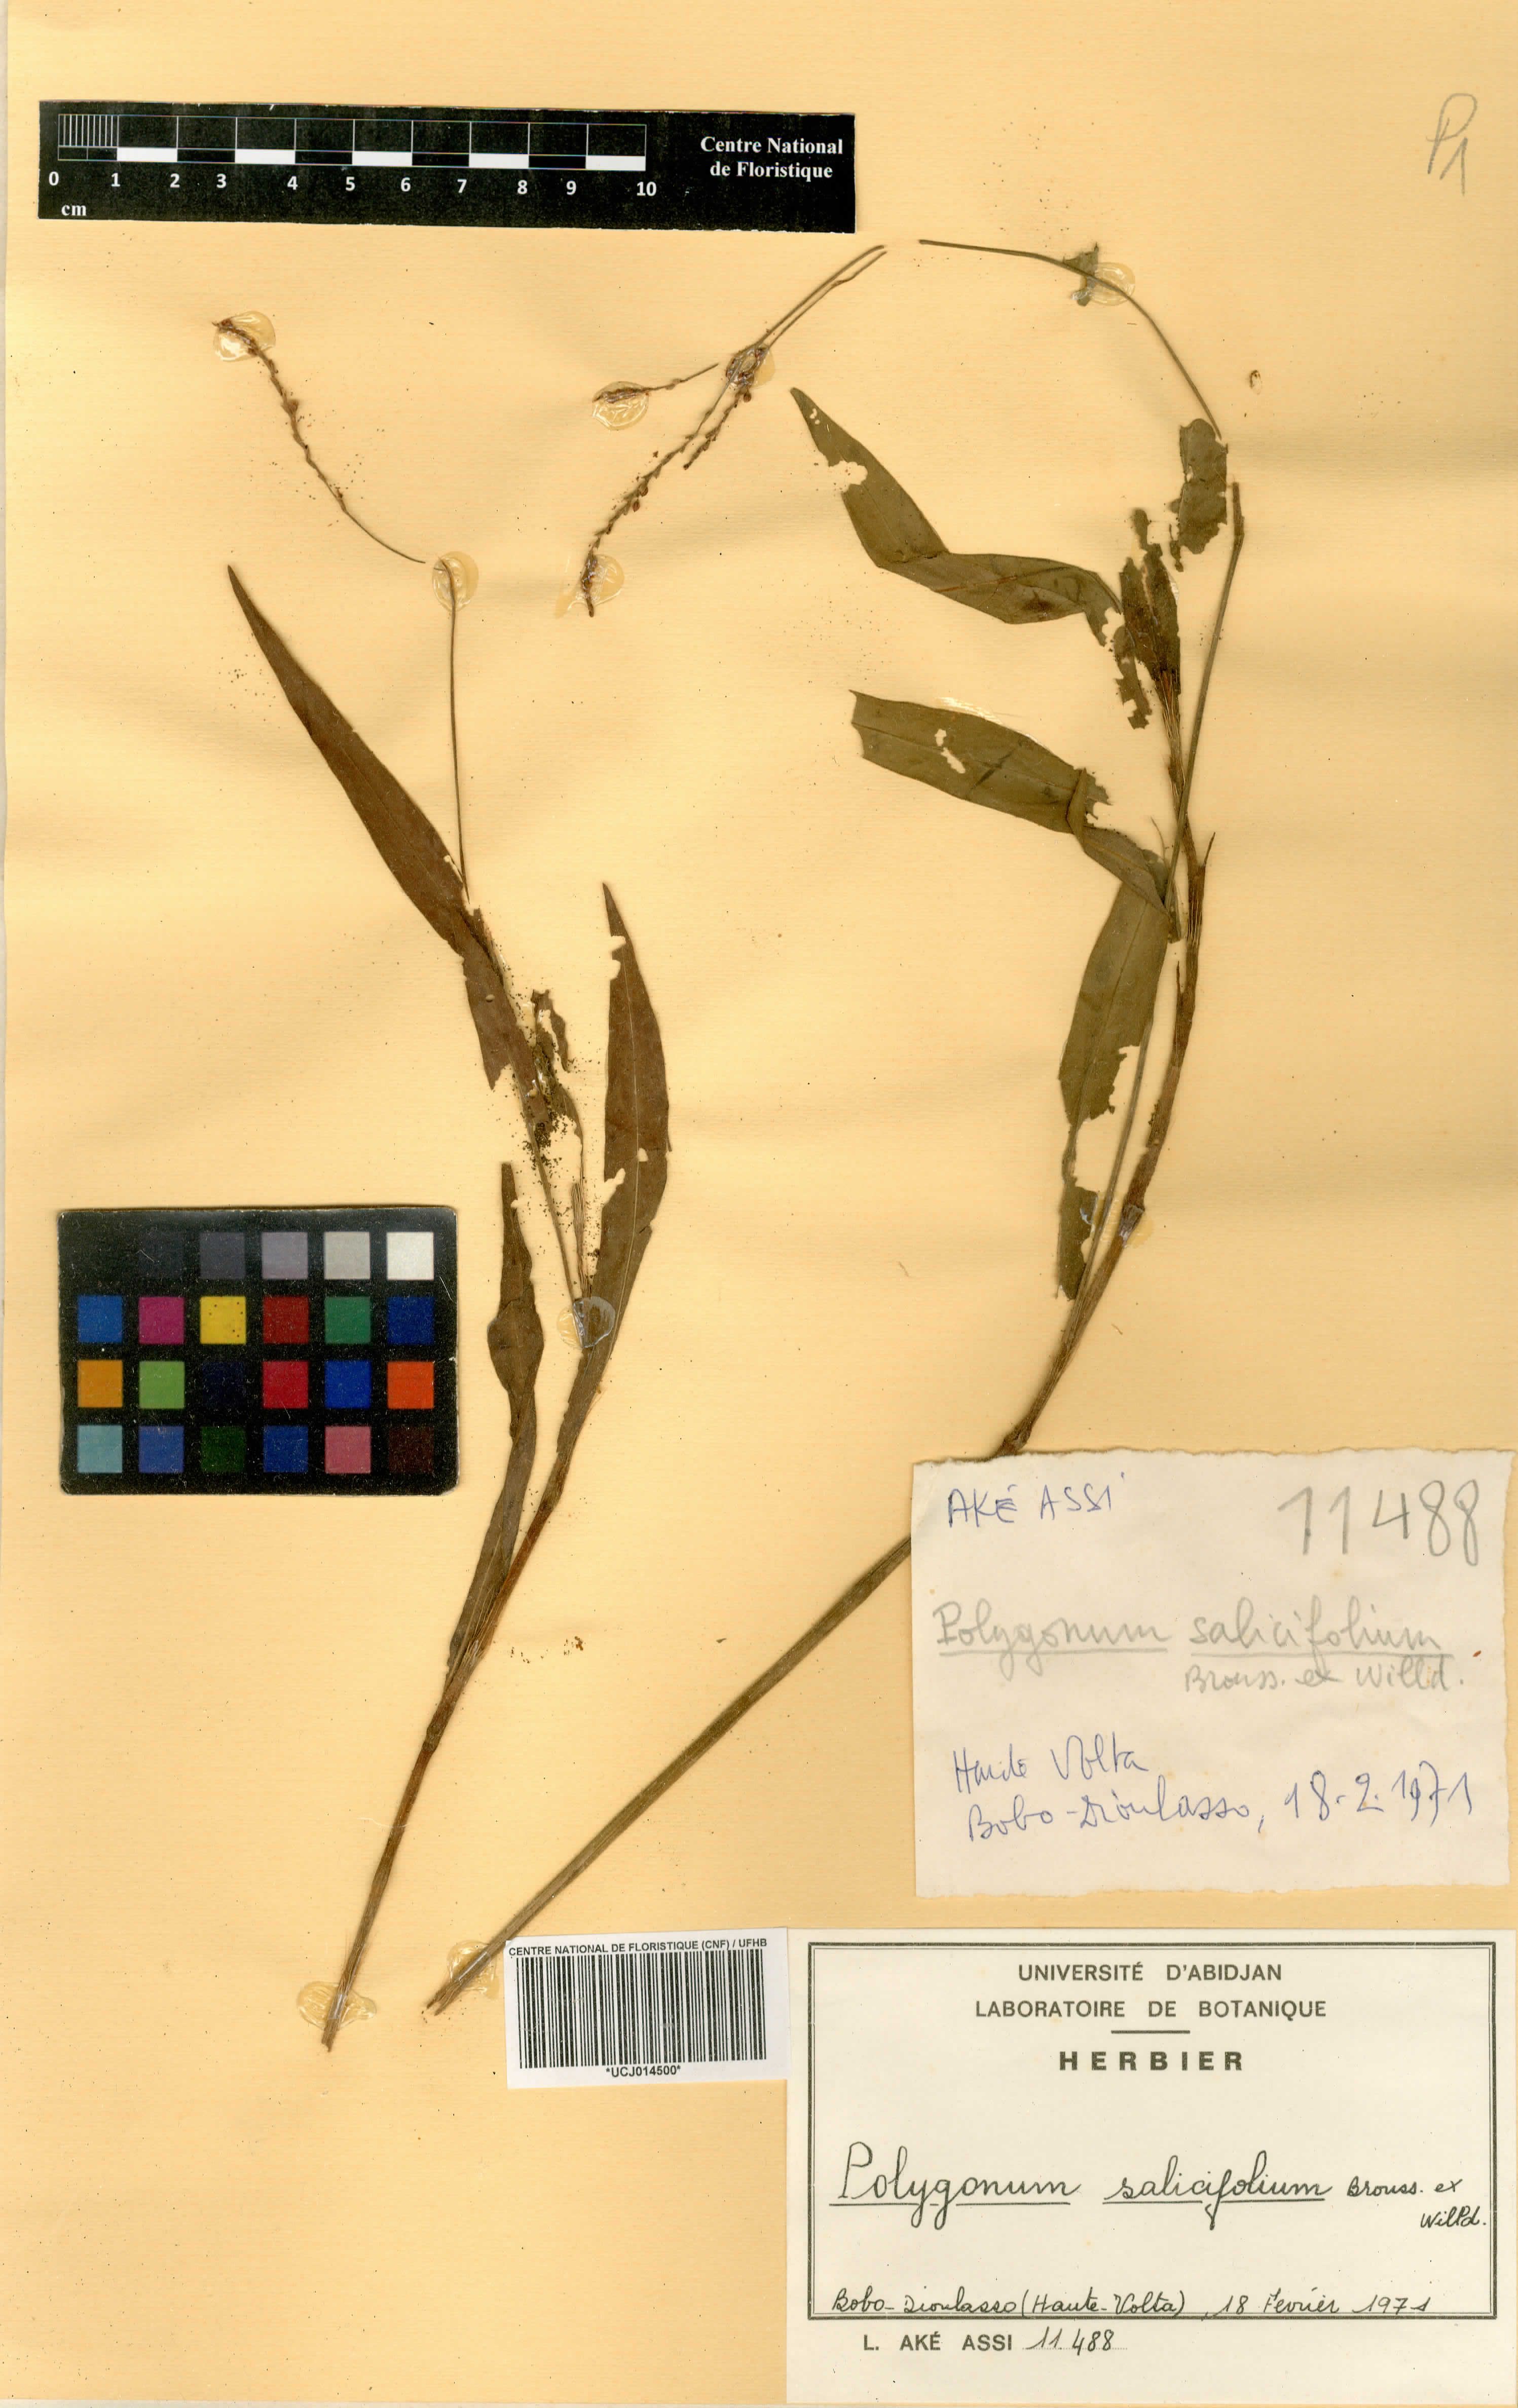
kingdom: Plantae
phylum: Tracheophyta
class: Magnoliopsida
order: Caryophyllales
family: Polygonaceae
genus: Persicaria
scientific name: Persicaria salicifolia
